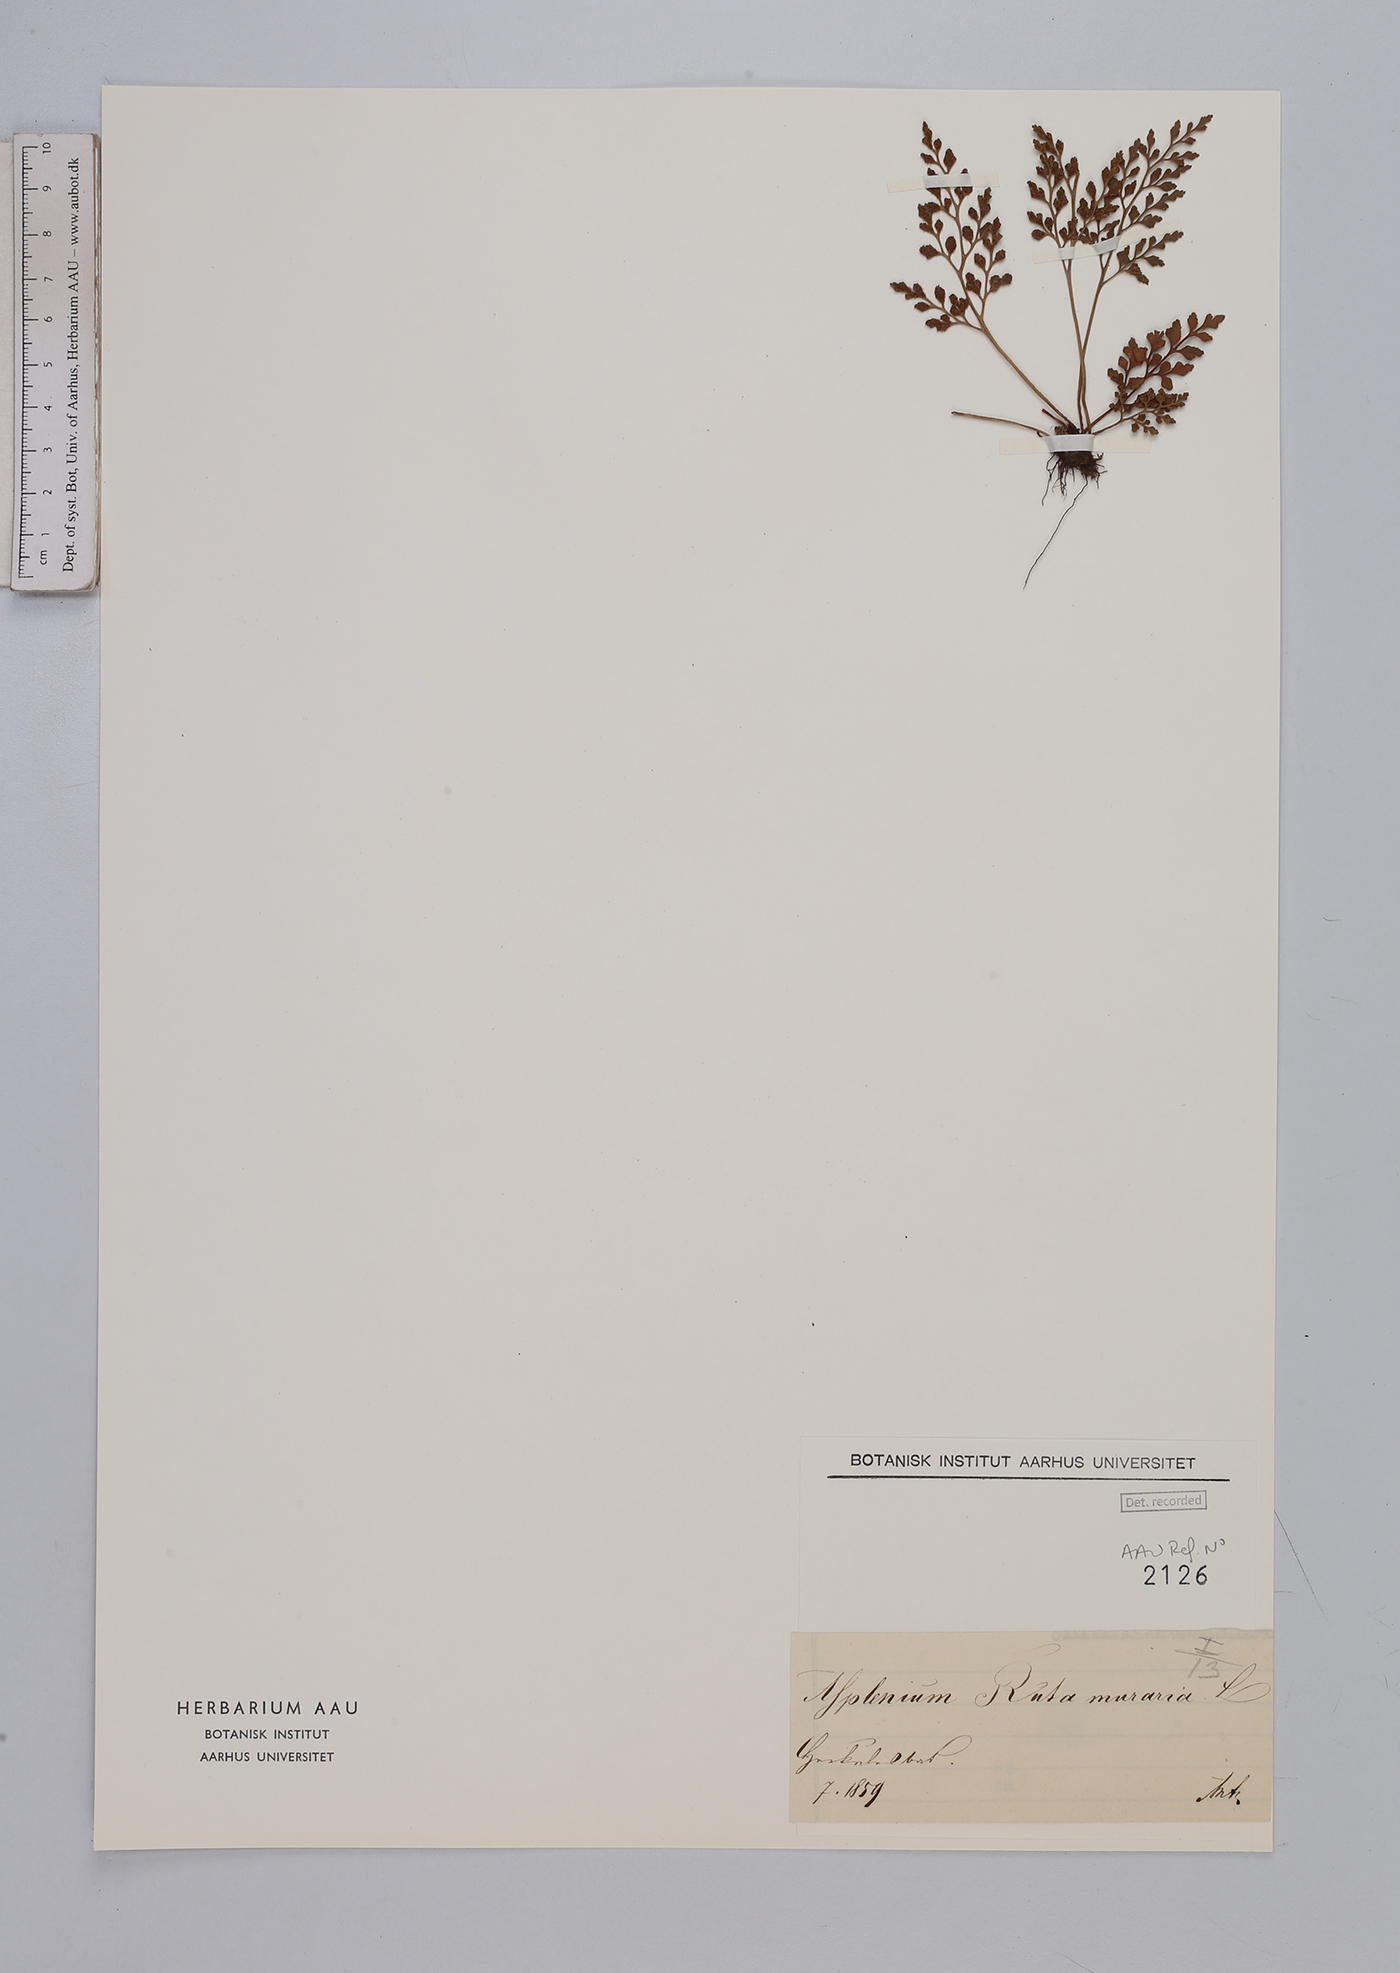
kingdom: Plantae
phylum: Tracheophyta
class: Polypodiopsida
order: Polypodiales
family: Aspleniaceae
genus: Asplenium
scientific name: Asplenium ruta-muraria
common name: Wall-rue
